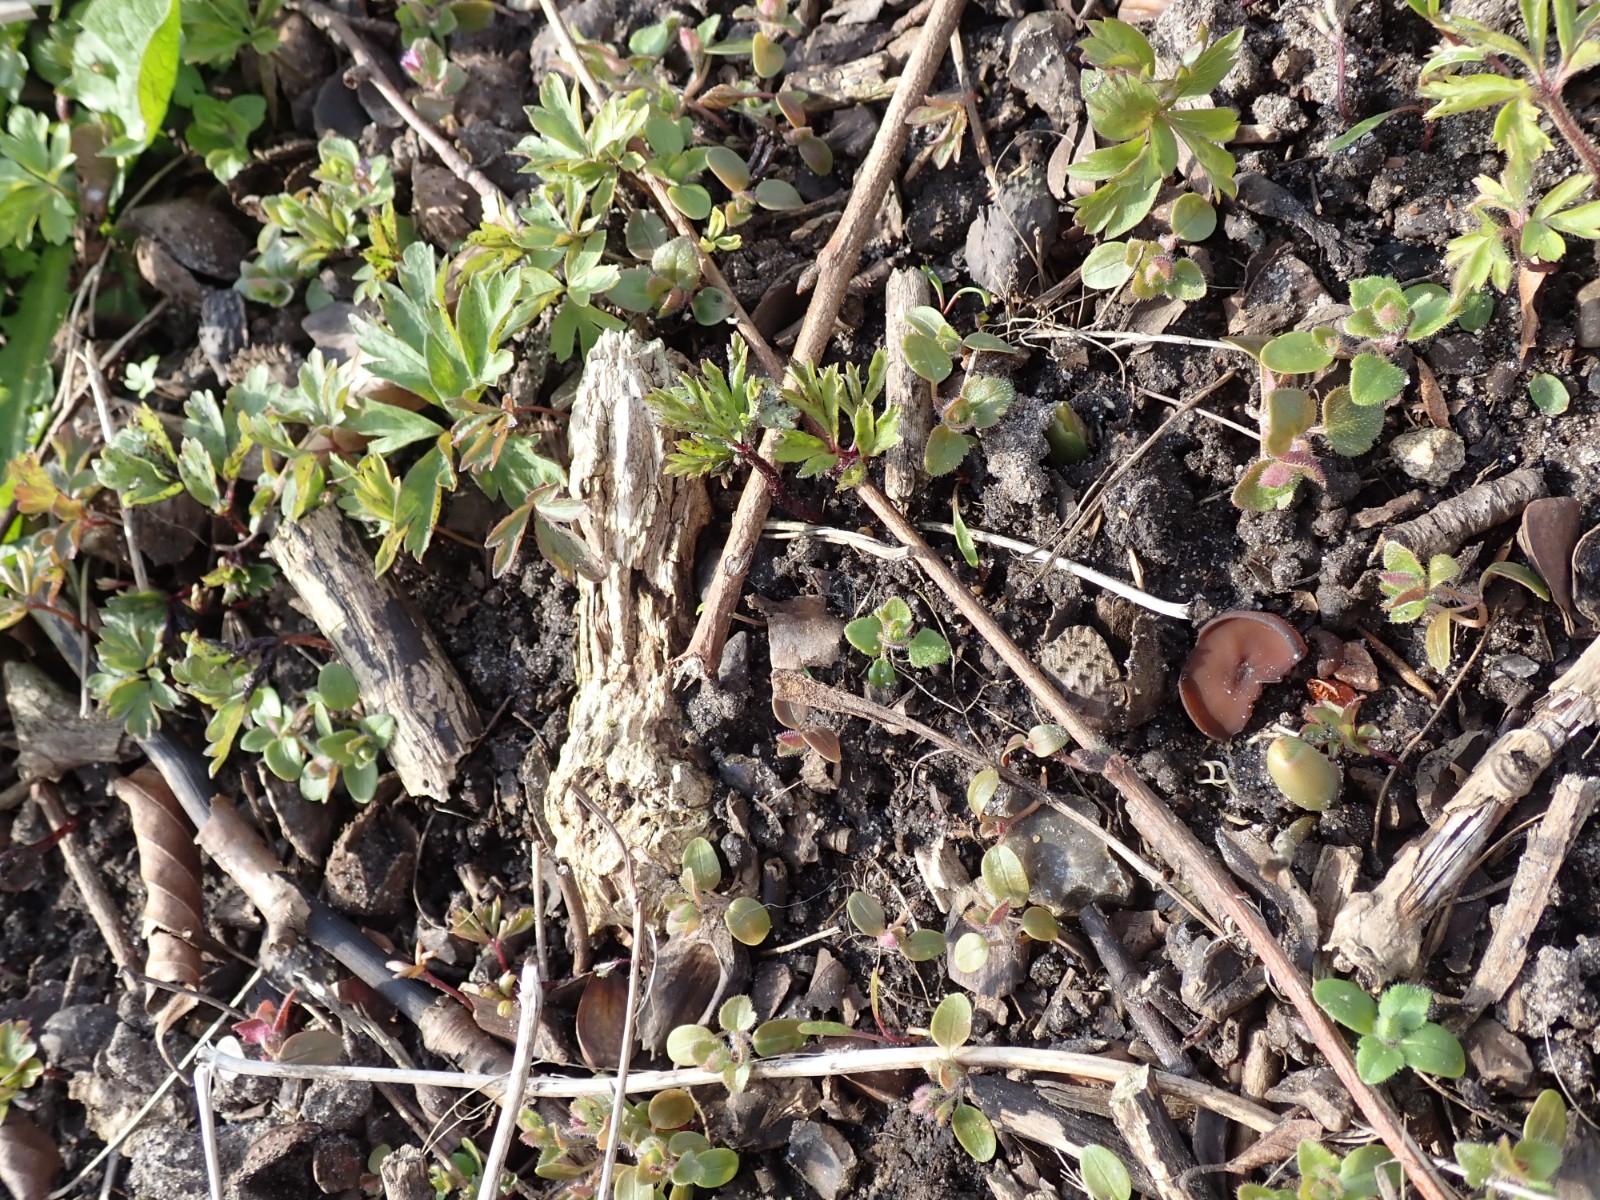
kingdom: Fungi
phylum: Ascomycota
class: Leotiomycetes
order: Helotiales
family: Sclerotiniaceae
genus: Dumontinia
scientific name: Dumontinia tuberosa
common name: anemone-knoldskive
